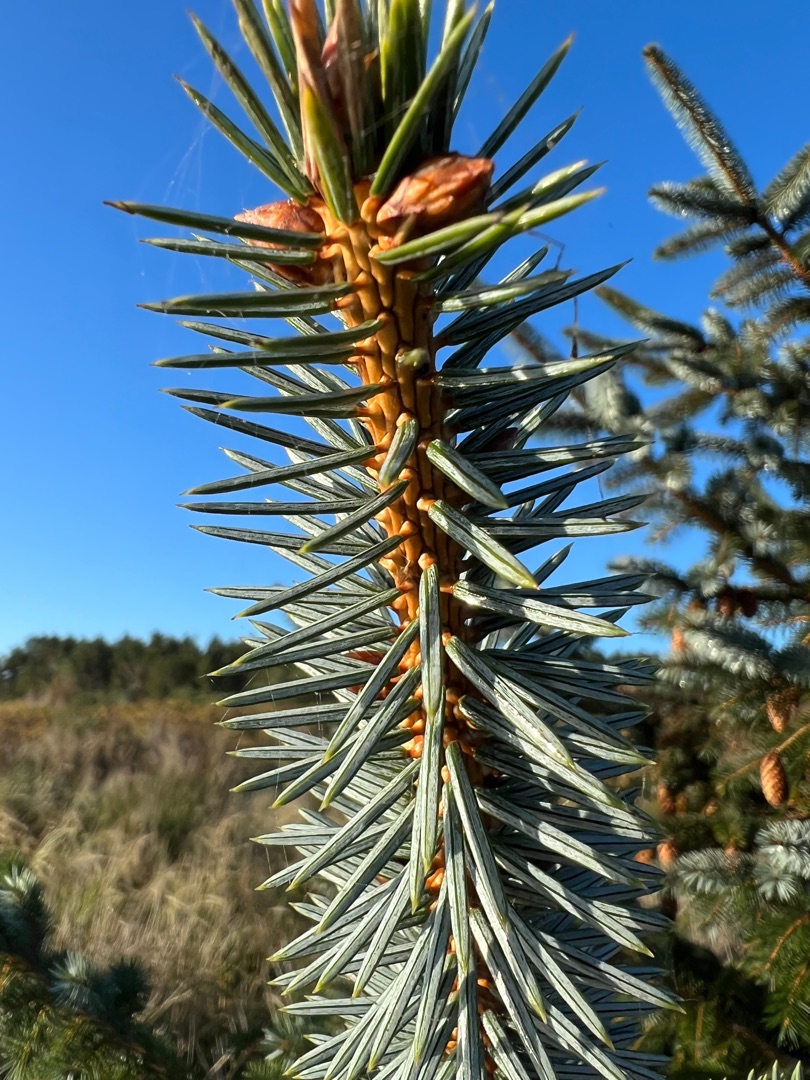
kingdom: Plantae
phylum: Tracheophyta
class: Pinopsida
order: Pinales
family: Pinaceae
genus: Picea
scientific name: Picea sitchensis
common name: Sitka-gran
